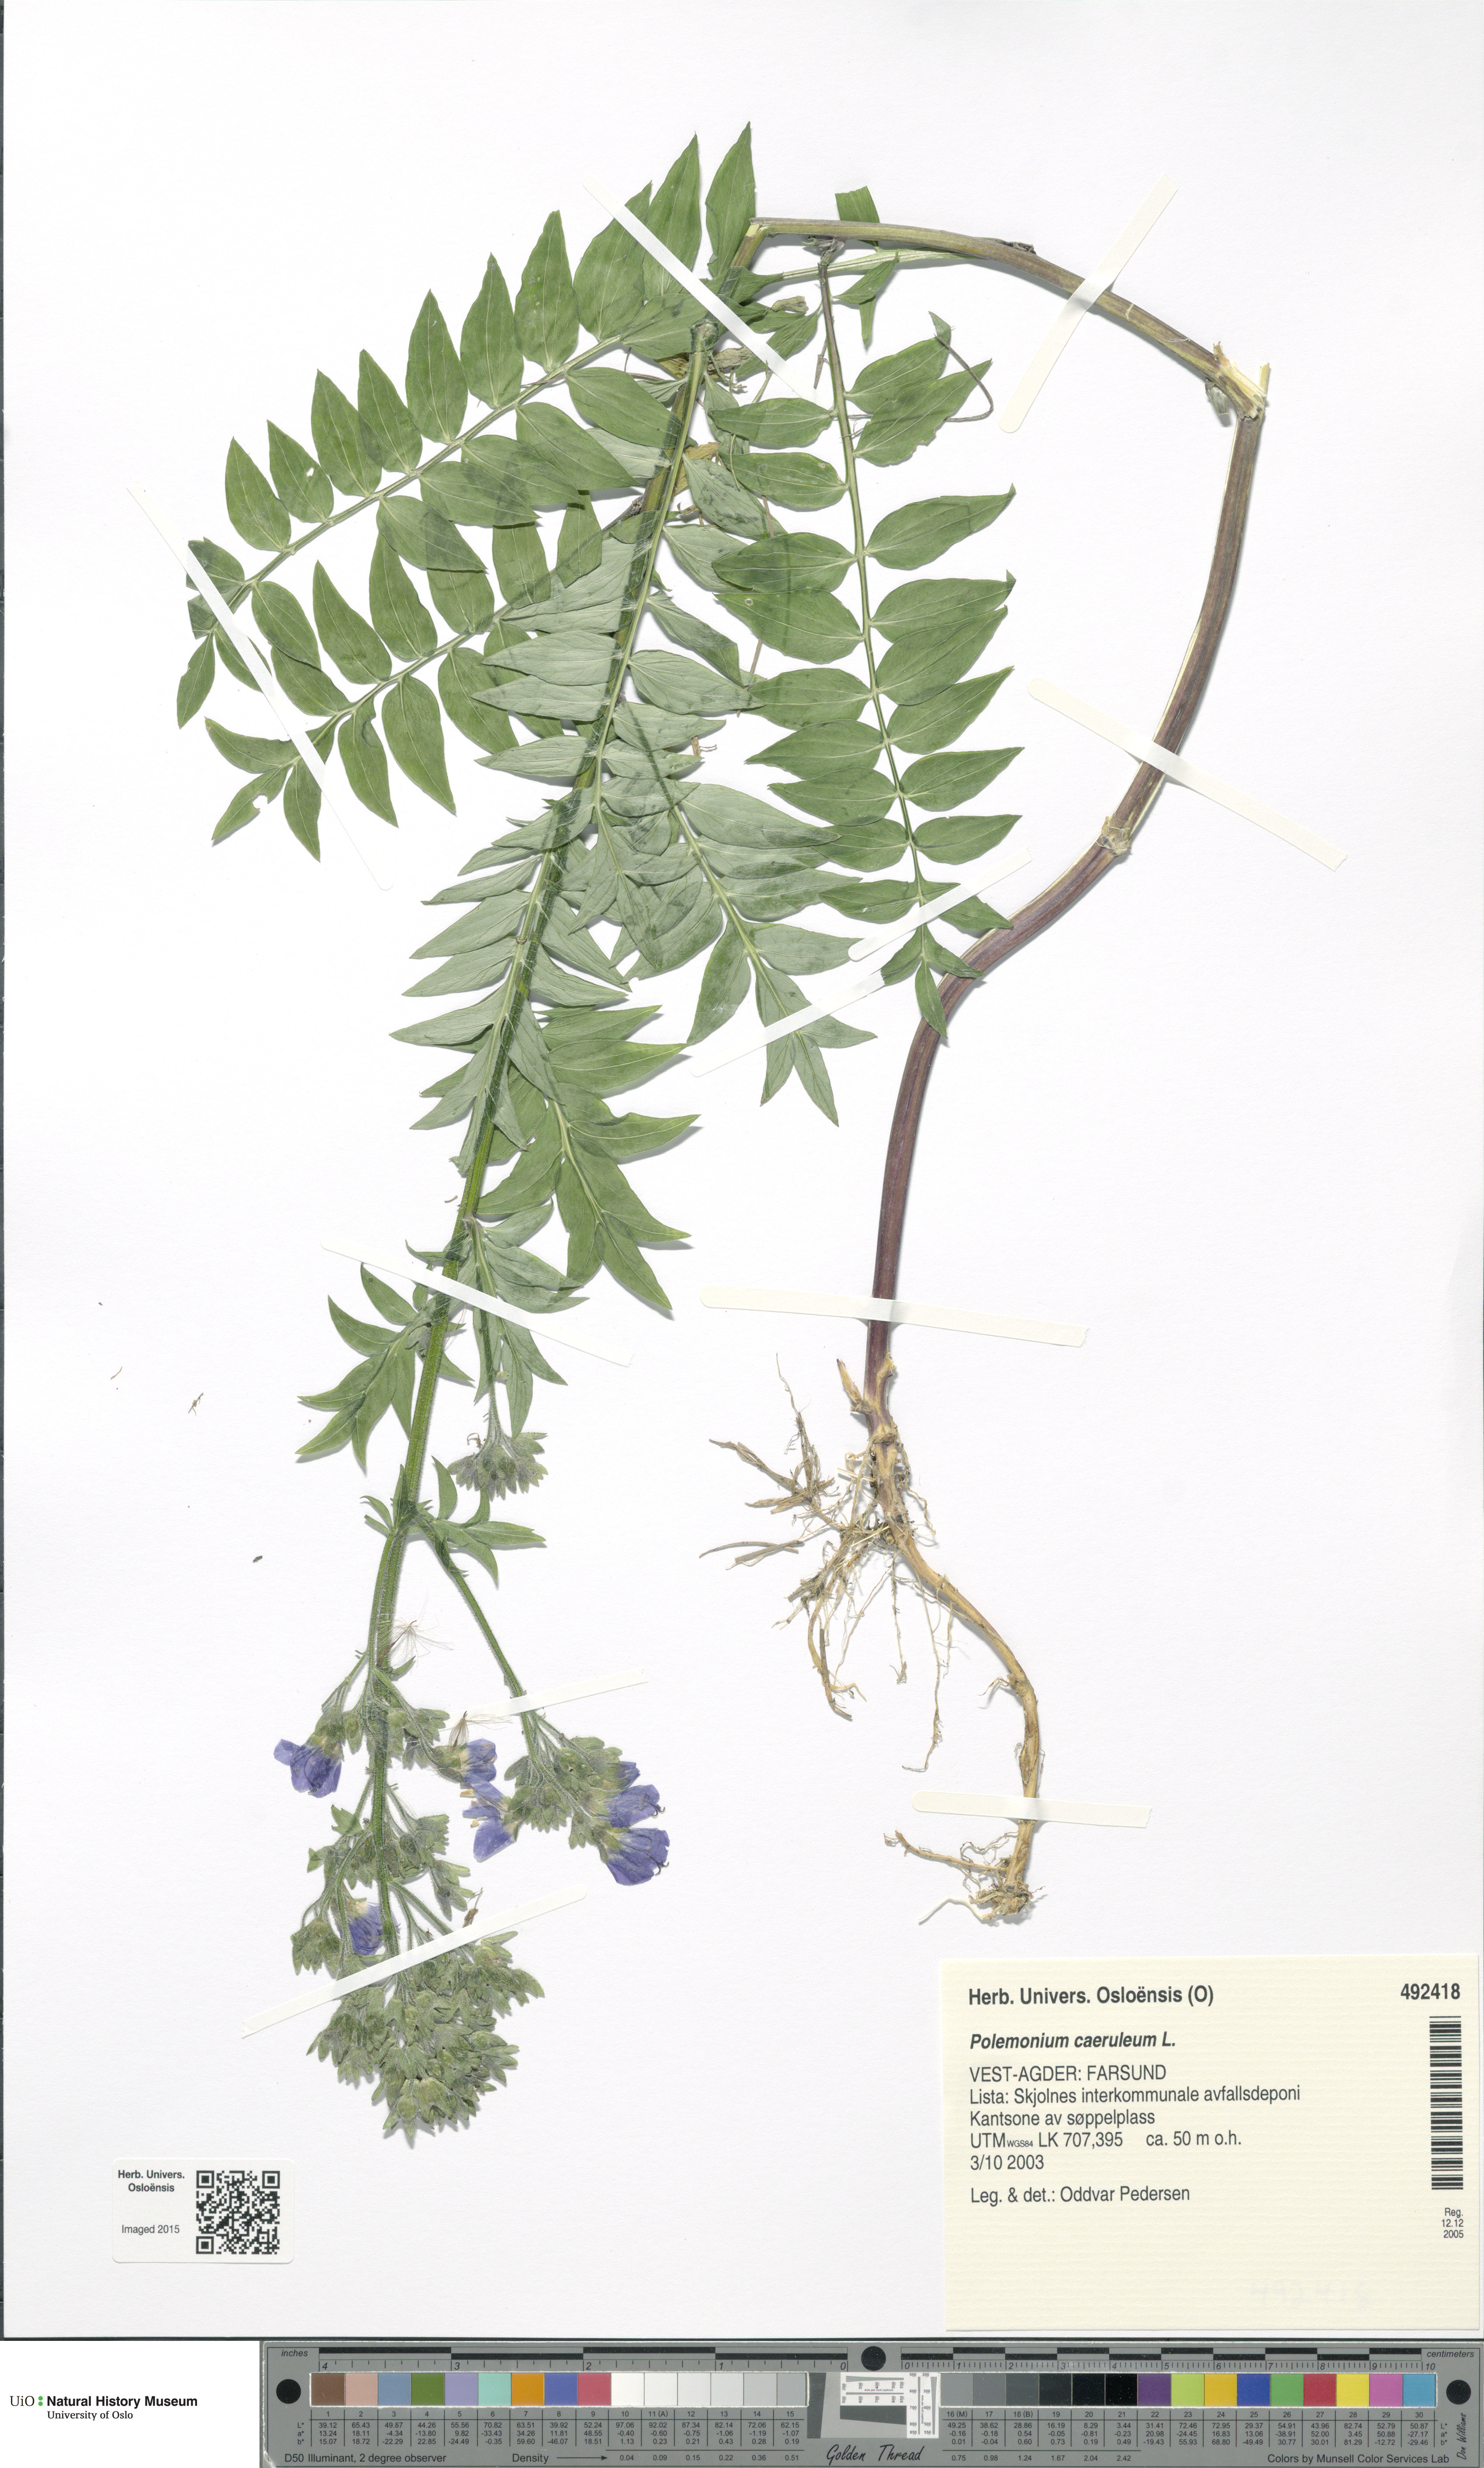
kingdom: Plantae
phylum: Tracheophyta
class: Magnoliopsida
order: Ericales
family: Polemoniaceae
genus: Polemonium
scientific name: Polemonium caeruleum
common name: Jacob's-ladder
